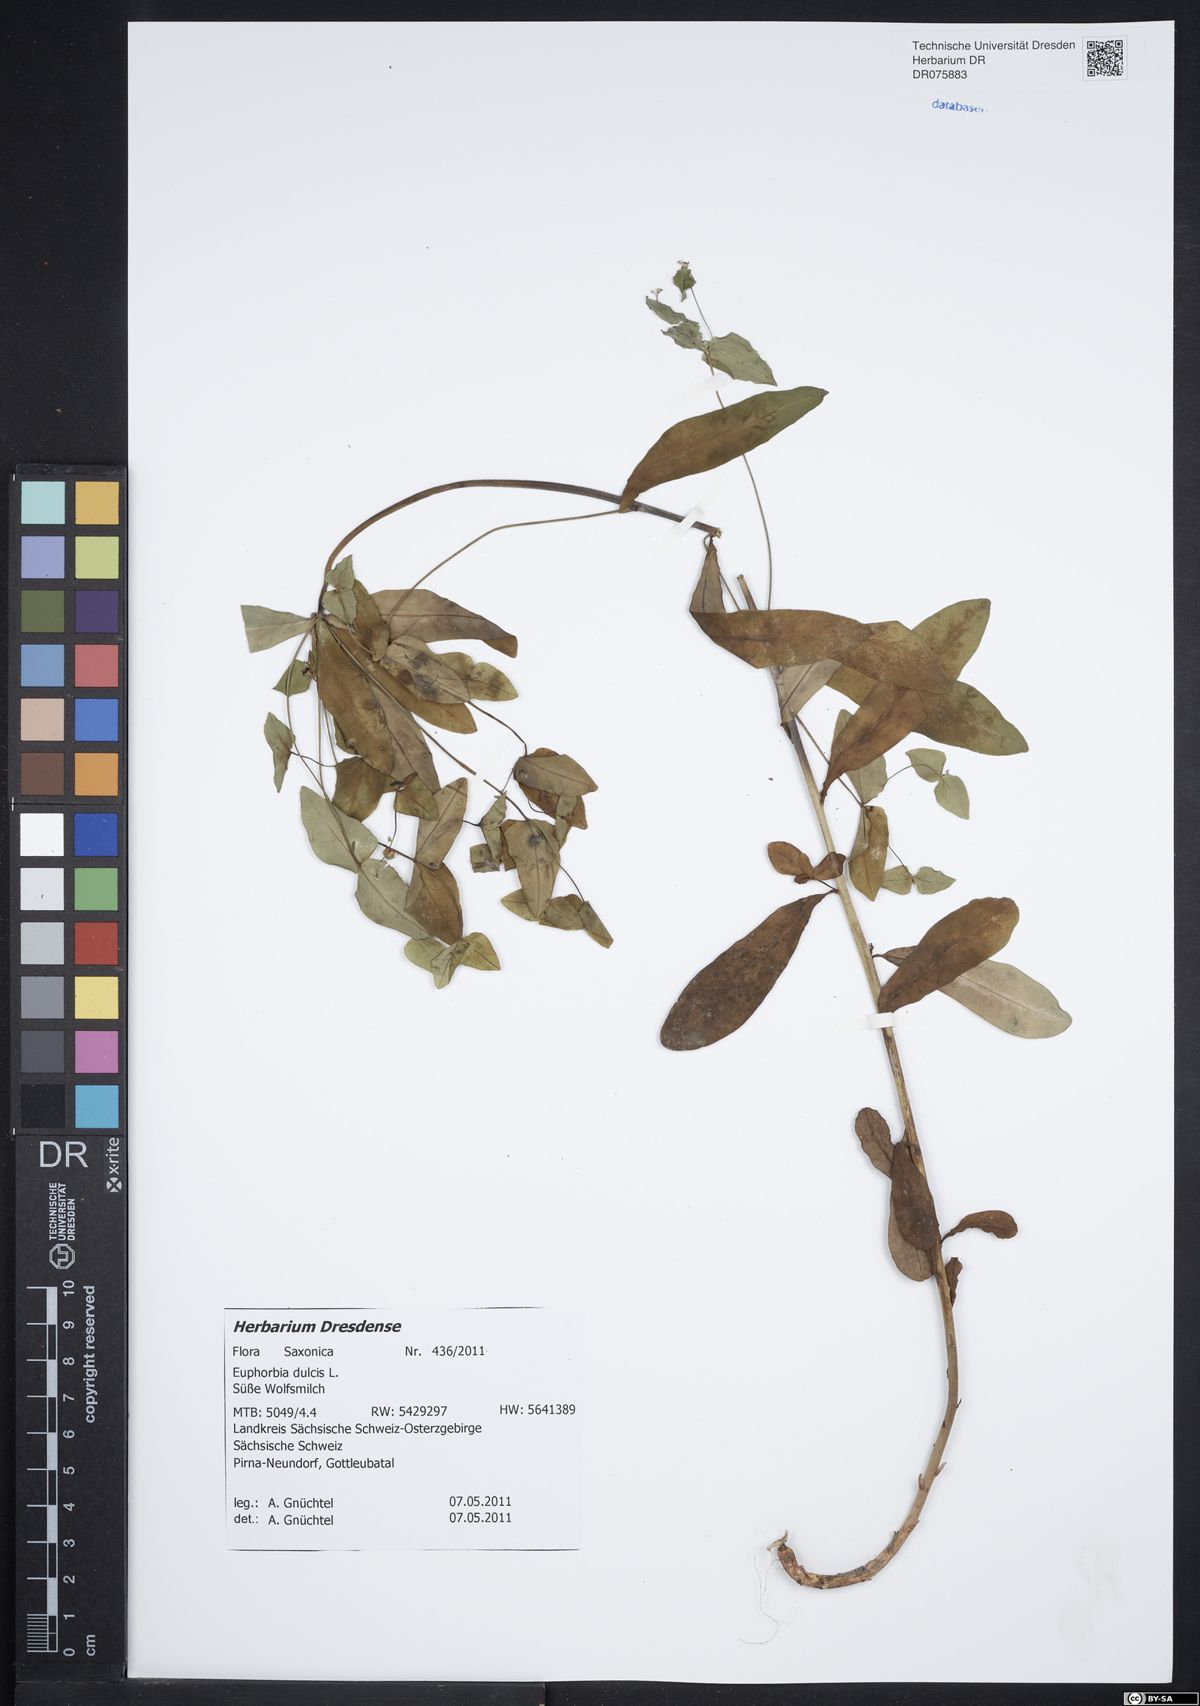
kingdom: Plantae
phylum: Tracheophyta
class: Magnoliopsida
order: Malpighiales
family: Euphorbiaceae
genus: Euphorbia
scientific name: Euphorbia dulcis
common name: Sweet spurge
